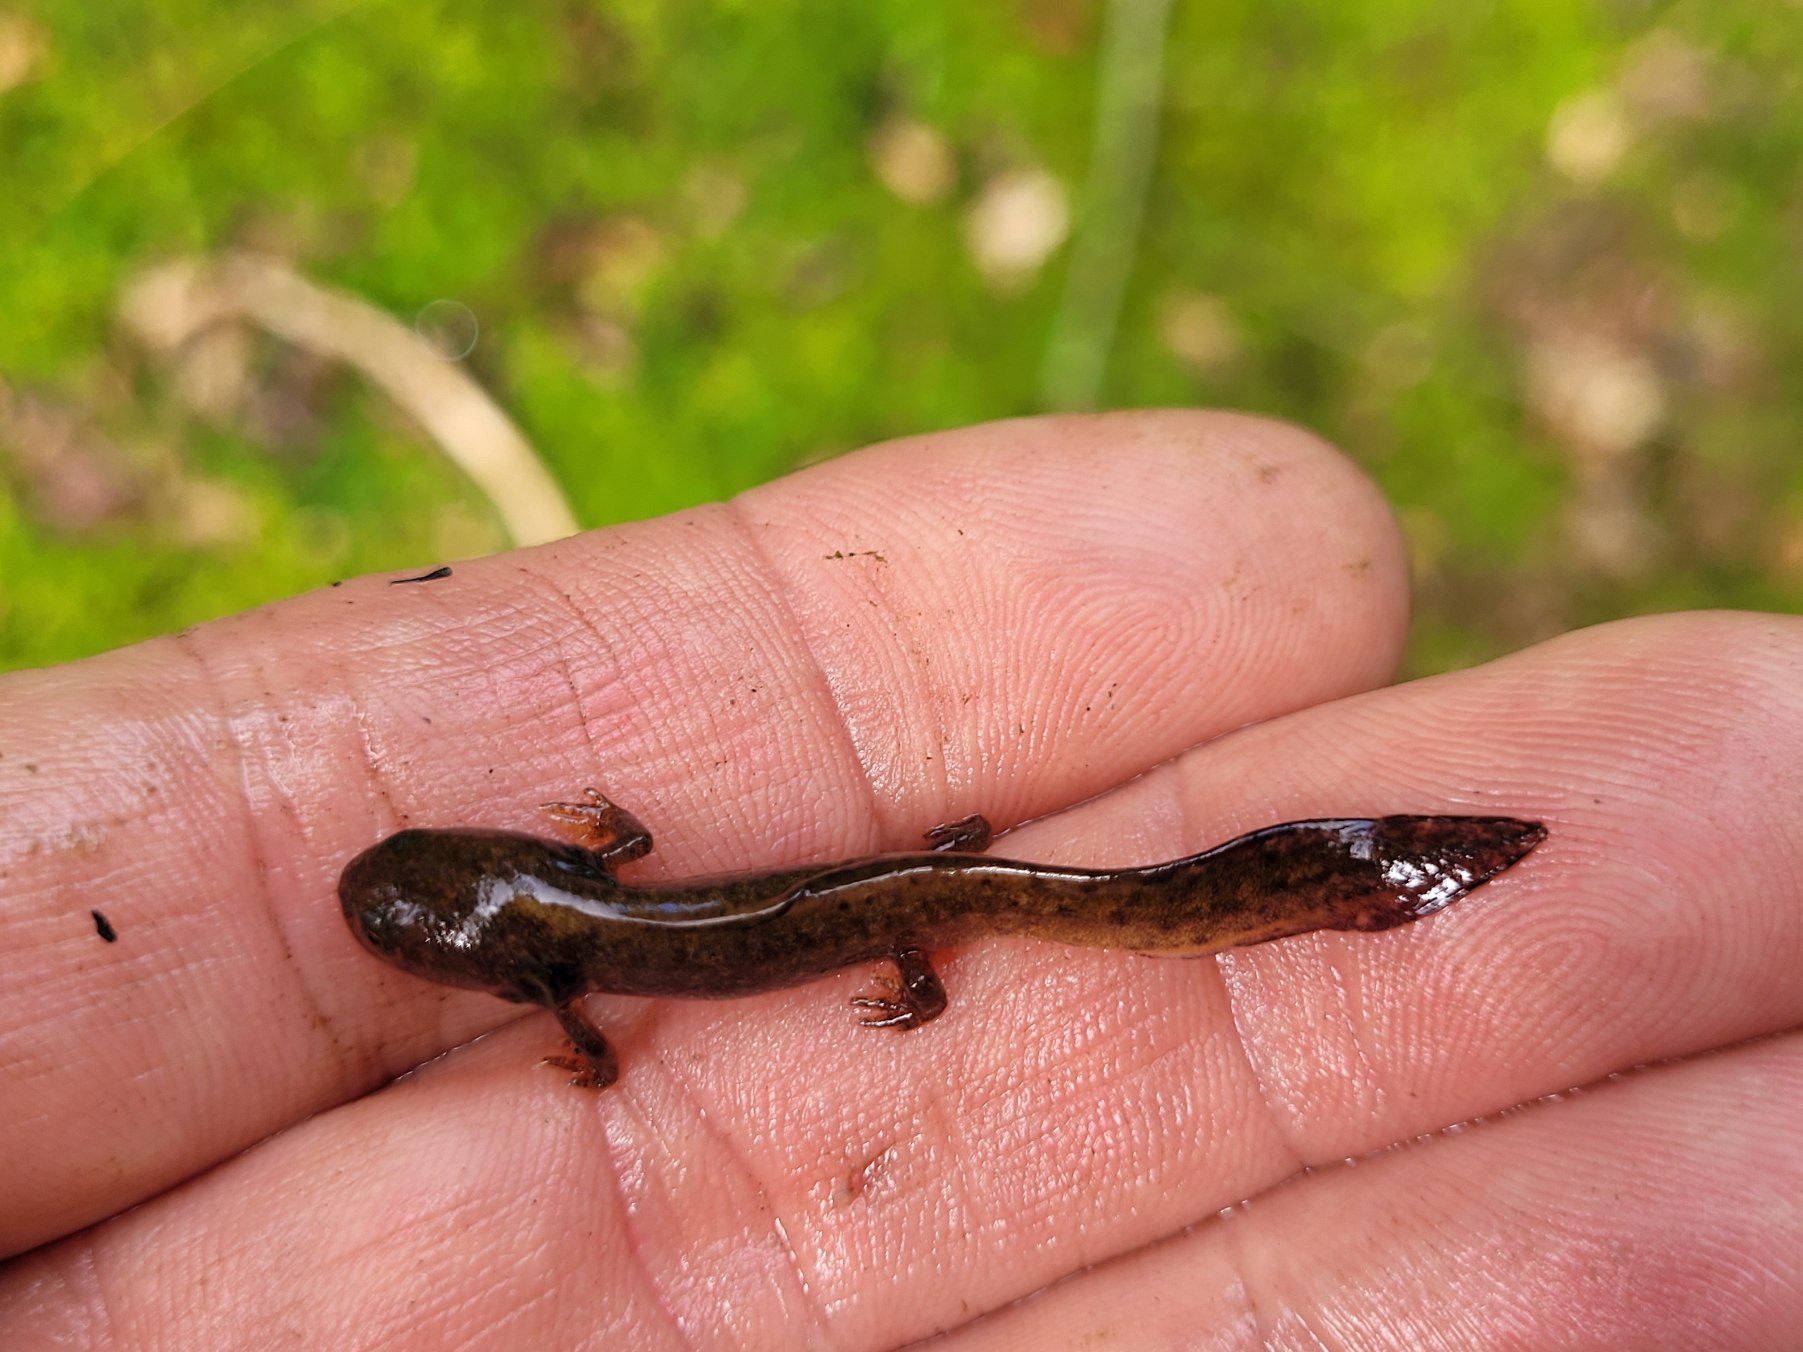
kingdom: Animalia
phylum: Chordata
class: Amphibia
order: Caudata
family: Salamandridae
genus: Ichthyosaura
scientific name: Ichthyosaura alpestris
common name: Bjergsalamander
